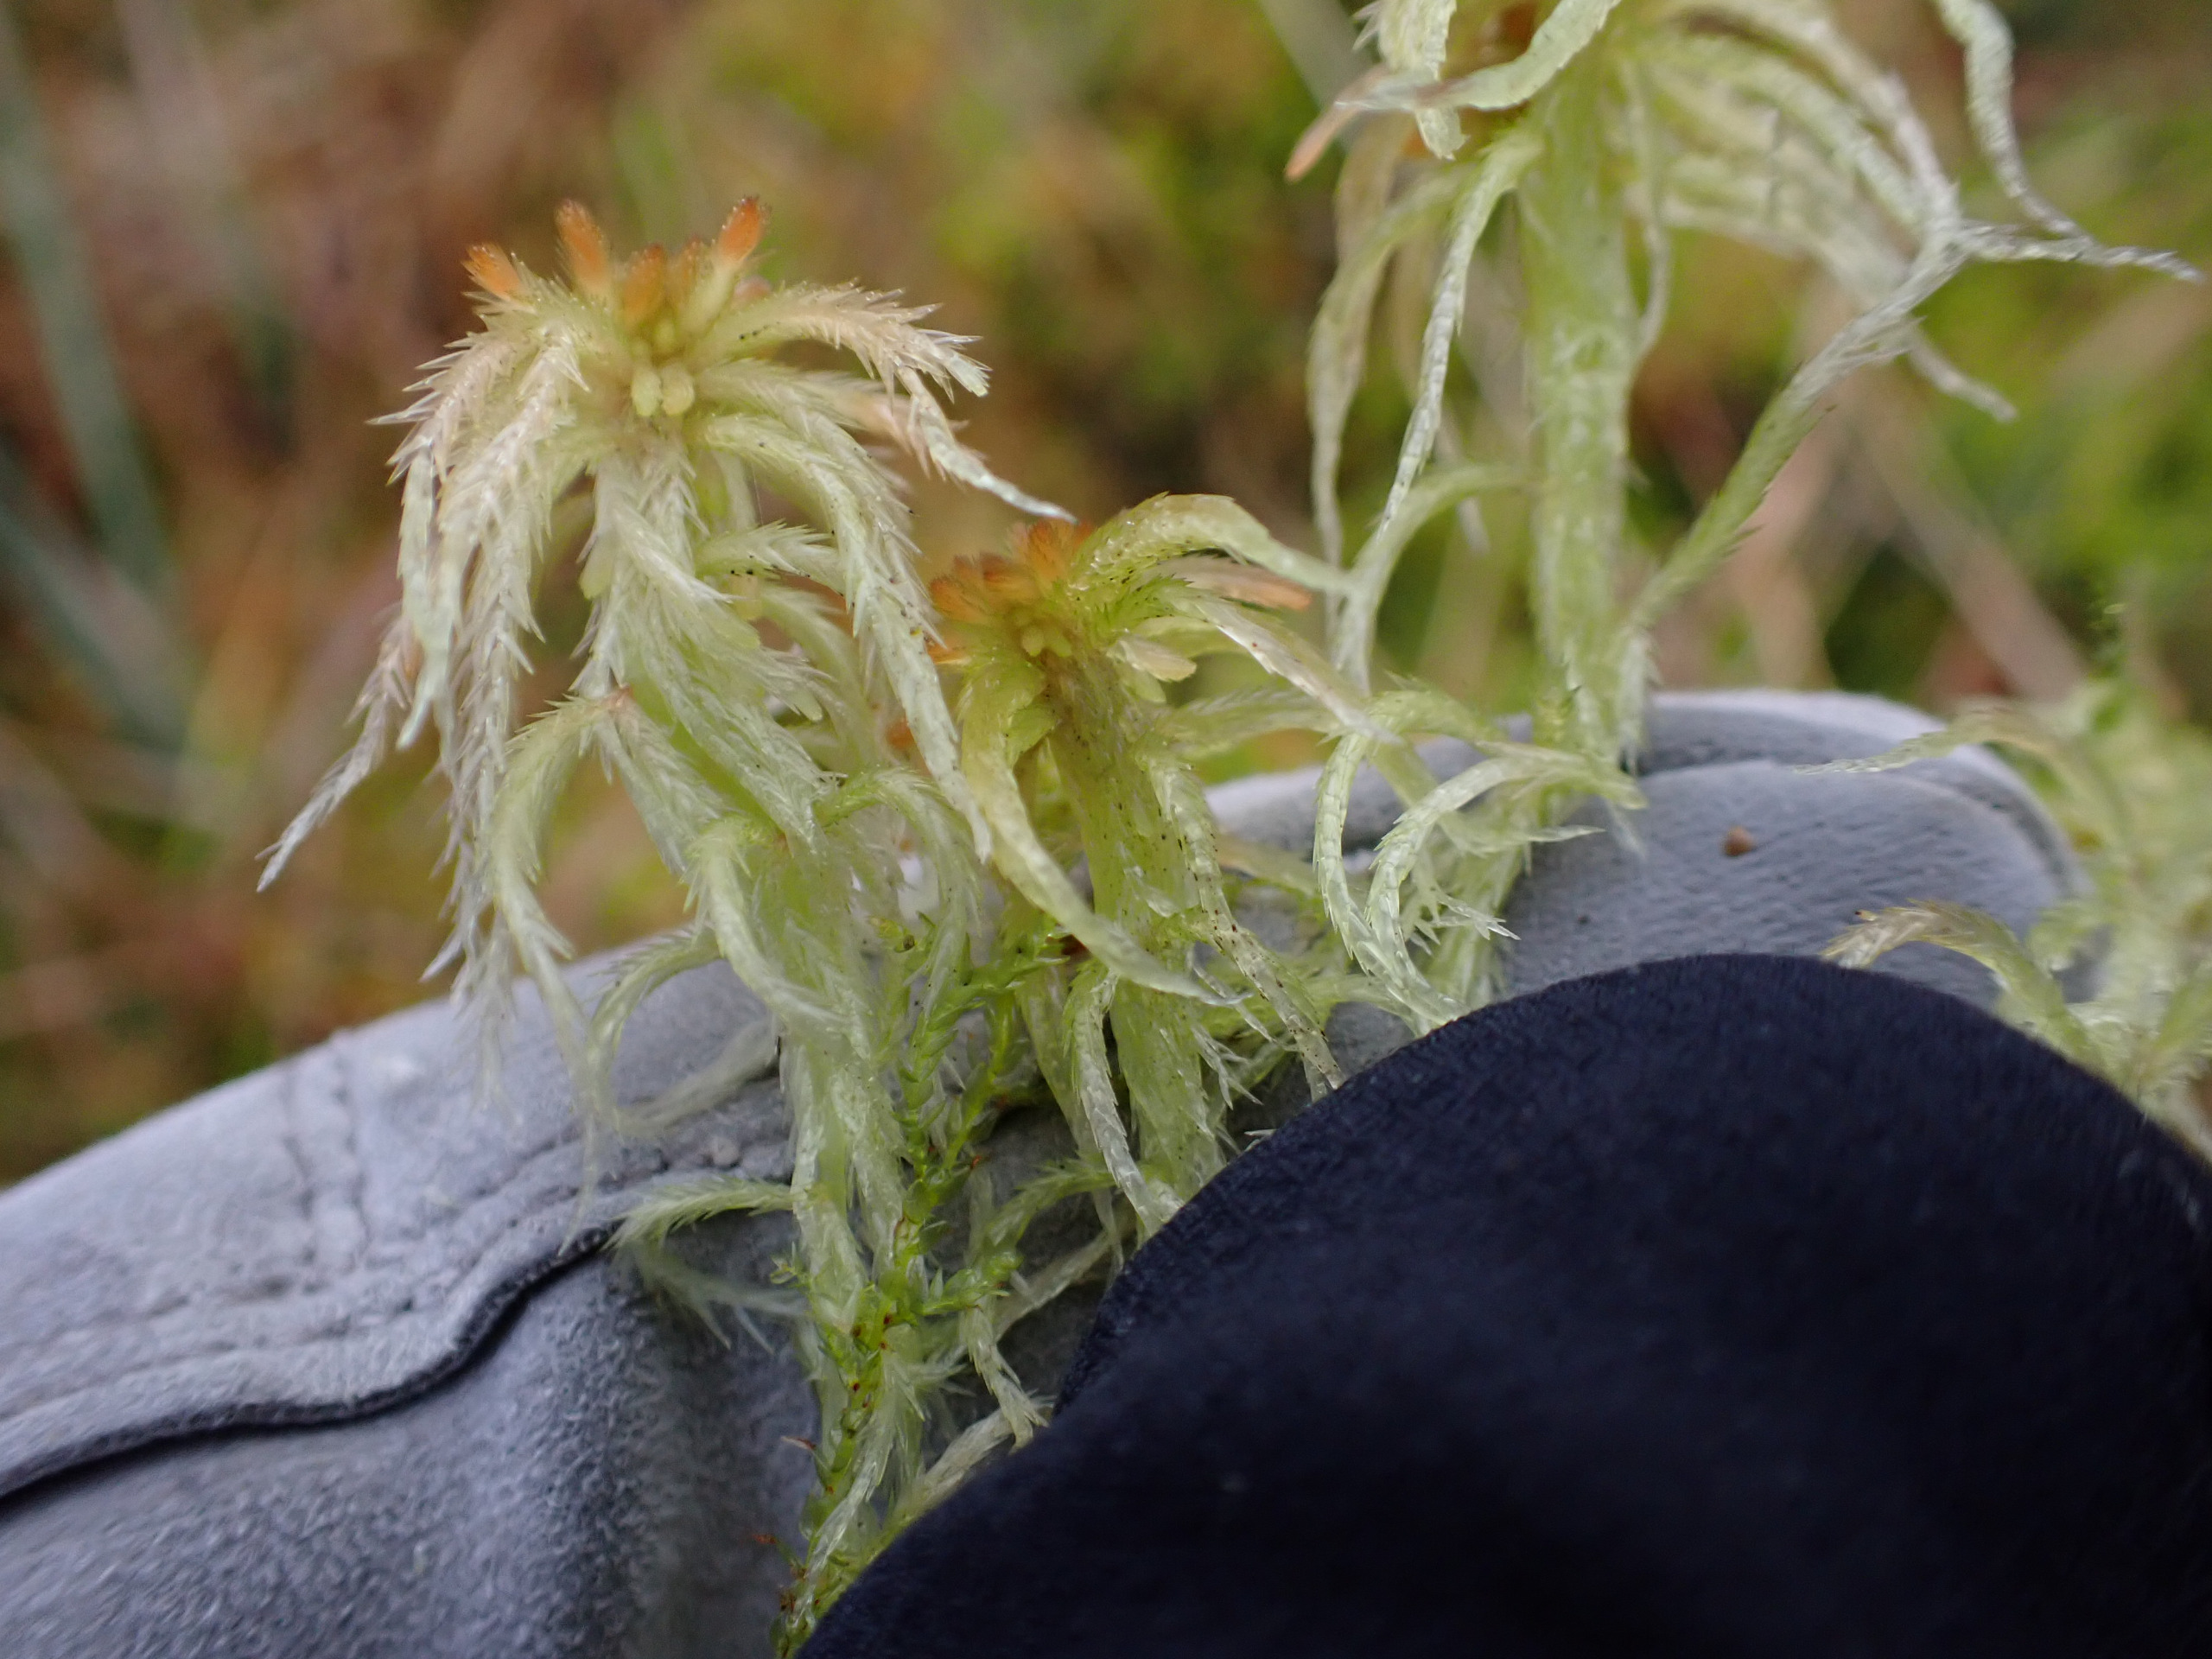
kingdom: Plantae
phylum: Bryophyta
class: Sphagnopsida
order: Sphagnales
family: Sphagnaceae
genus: Sphagnum
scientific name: Sphagnum fallax
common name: Brodspids-tørvemos
